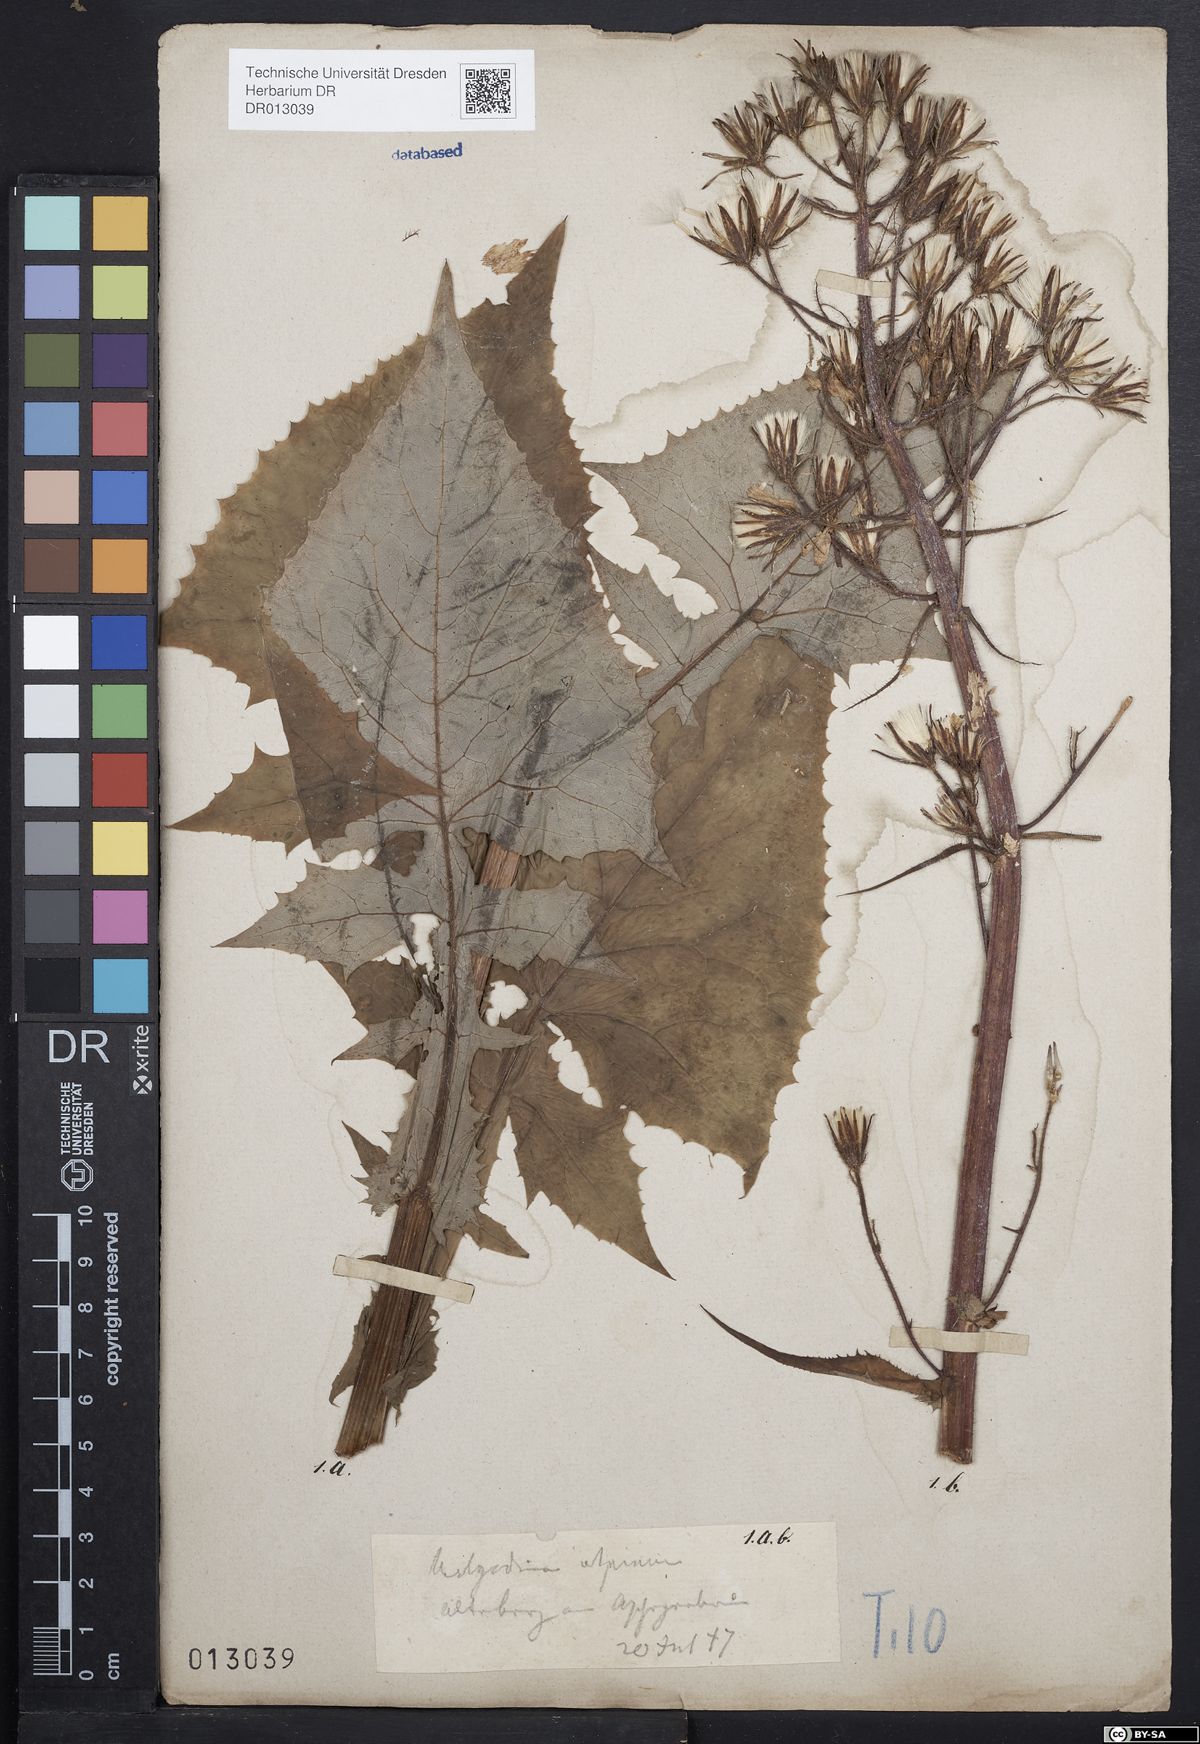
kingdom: Plantae
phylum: Tracheophyta
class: Magnoliopsida
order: Asterales
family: Asteraceae
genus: Cicerbita
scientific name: Cicerbita alpina
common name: Alpine blue-sow-thistle
